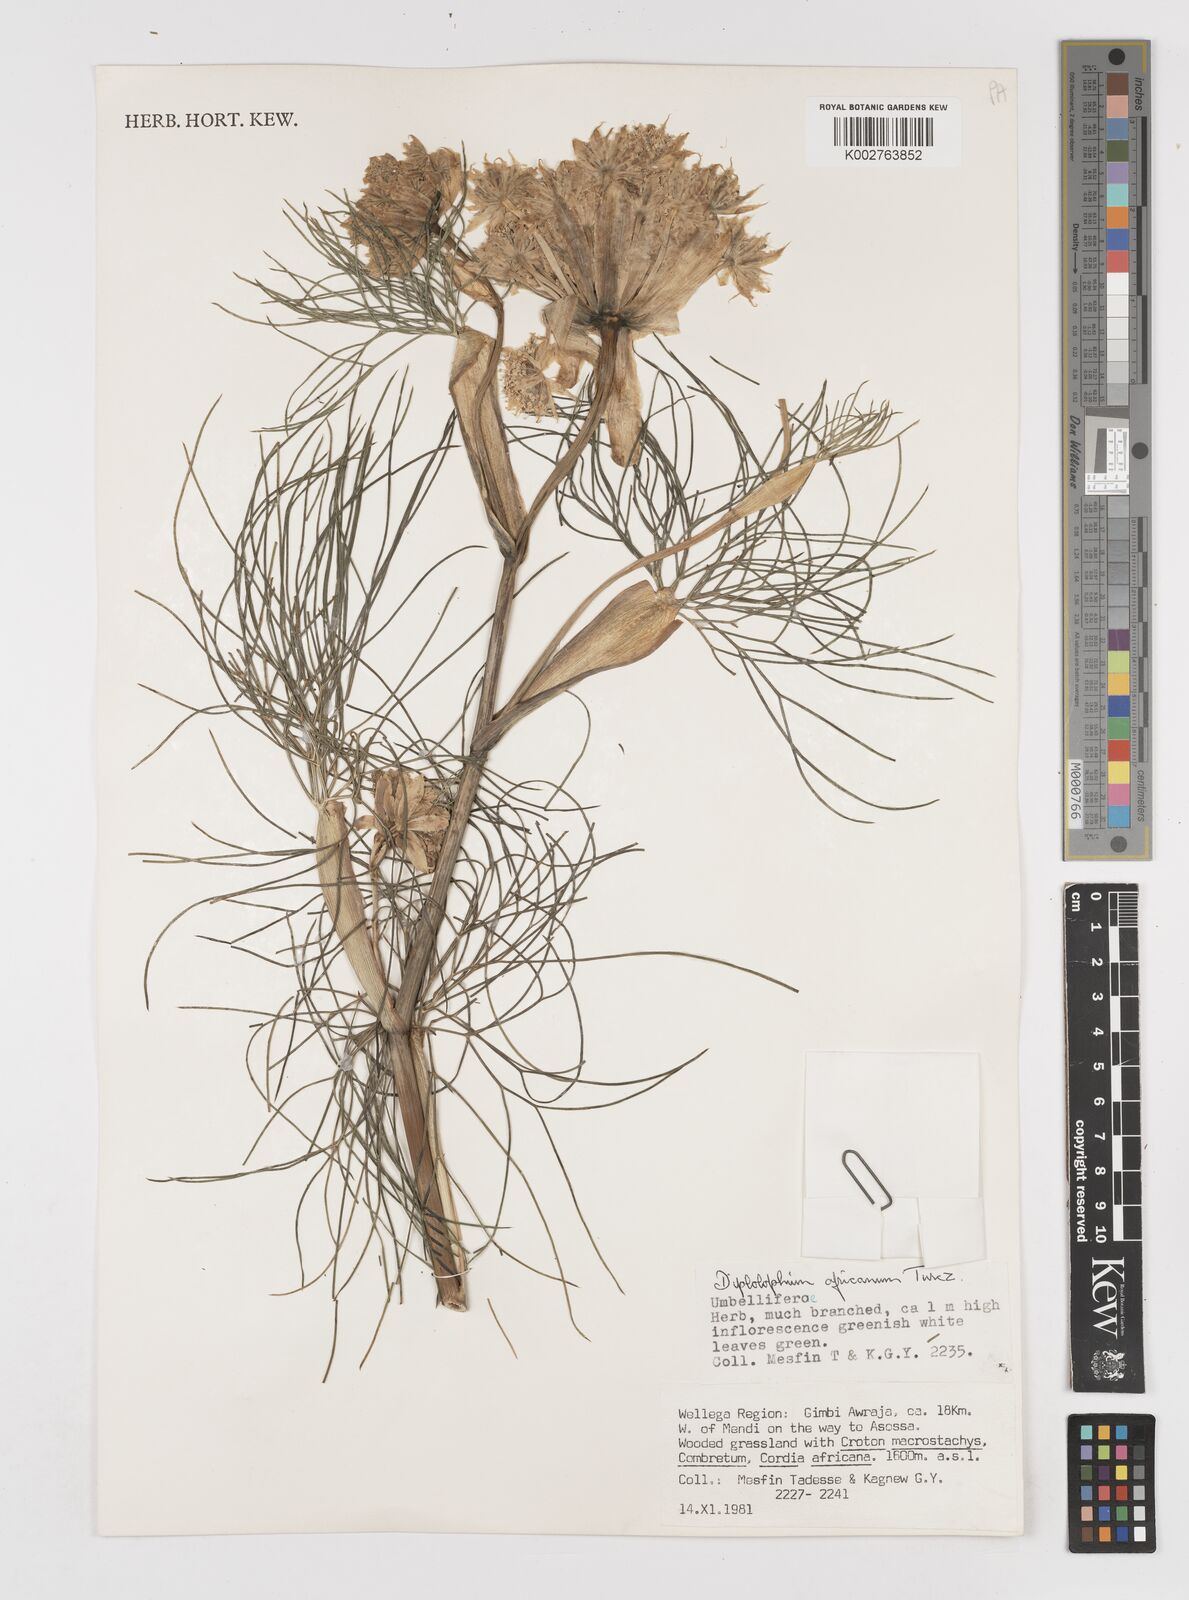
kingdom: Plantae
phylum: Tracheophyta
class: Magnoliopsida
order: Apiales
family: Apiaceae
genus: Diplolophium
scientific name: Diplolophium africanum
